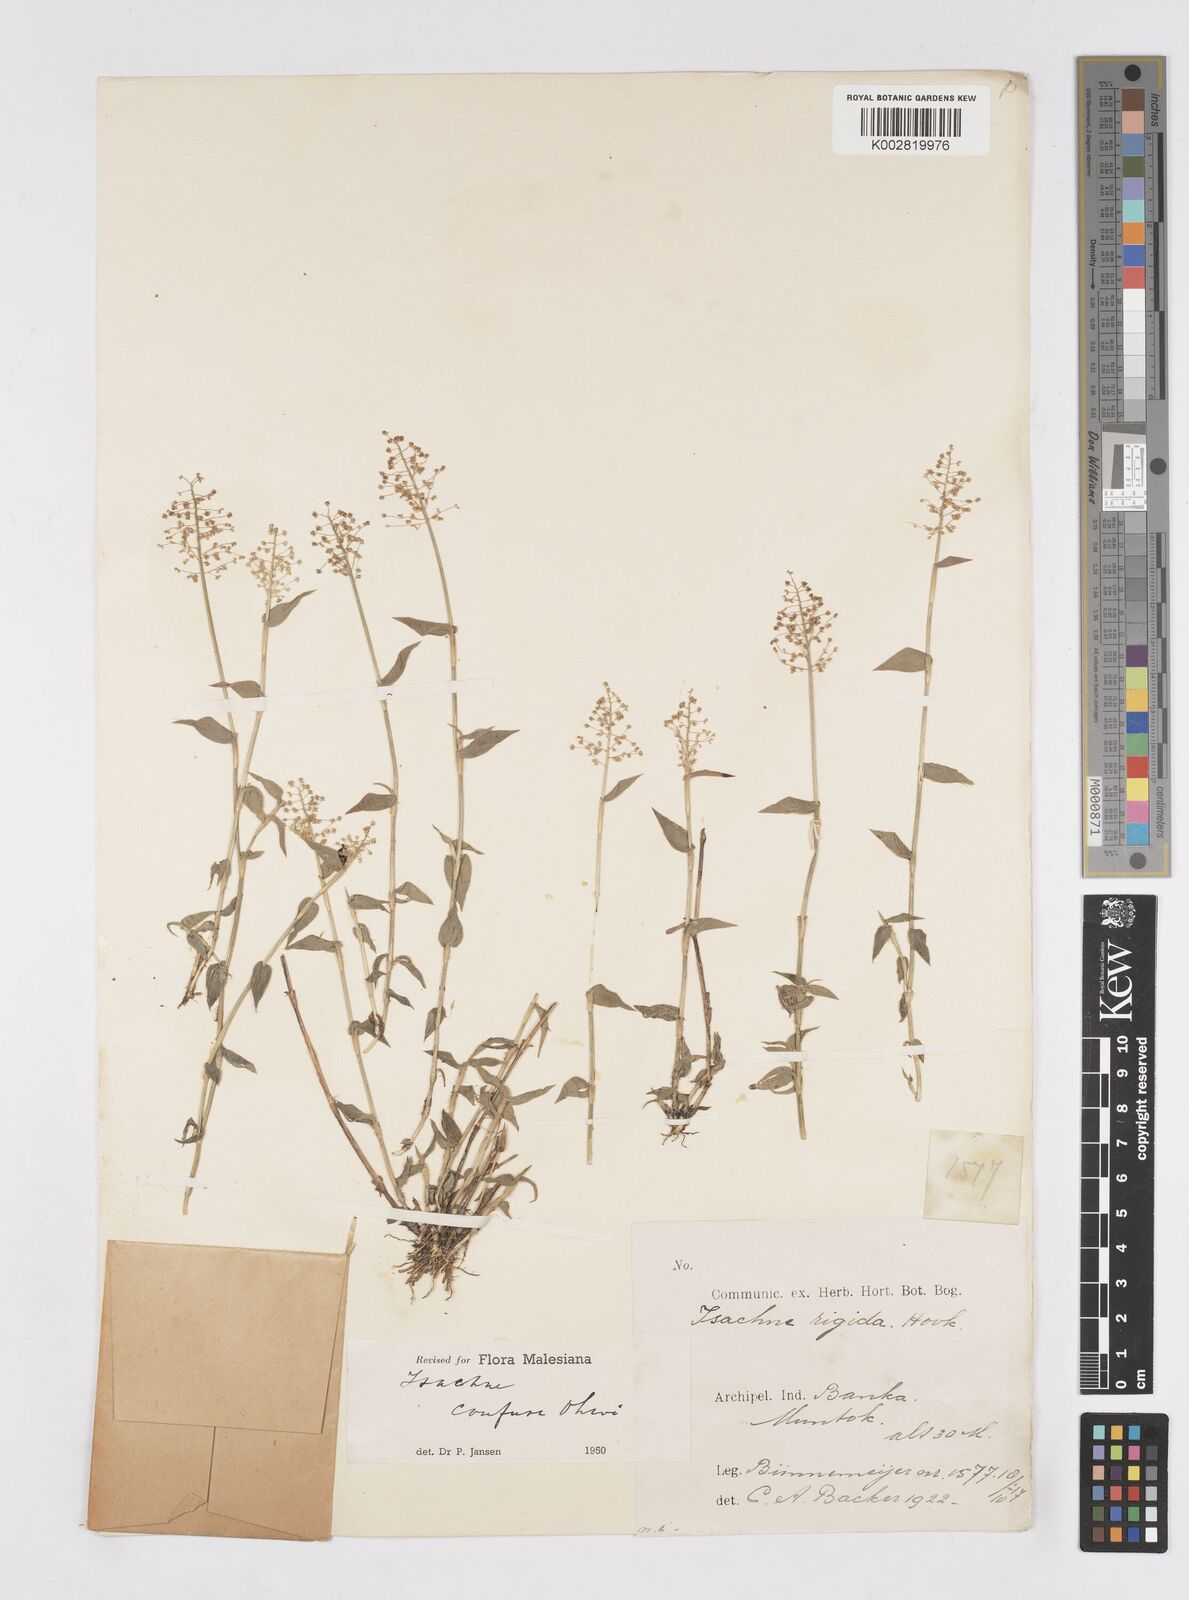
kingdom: Plantae
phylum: Tracheophyta
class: Liliopsida
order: Poales
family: Poaceae
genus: Isachne
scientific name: Isachne confusa
